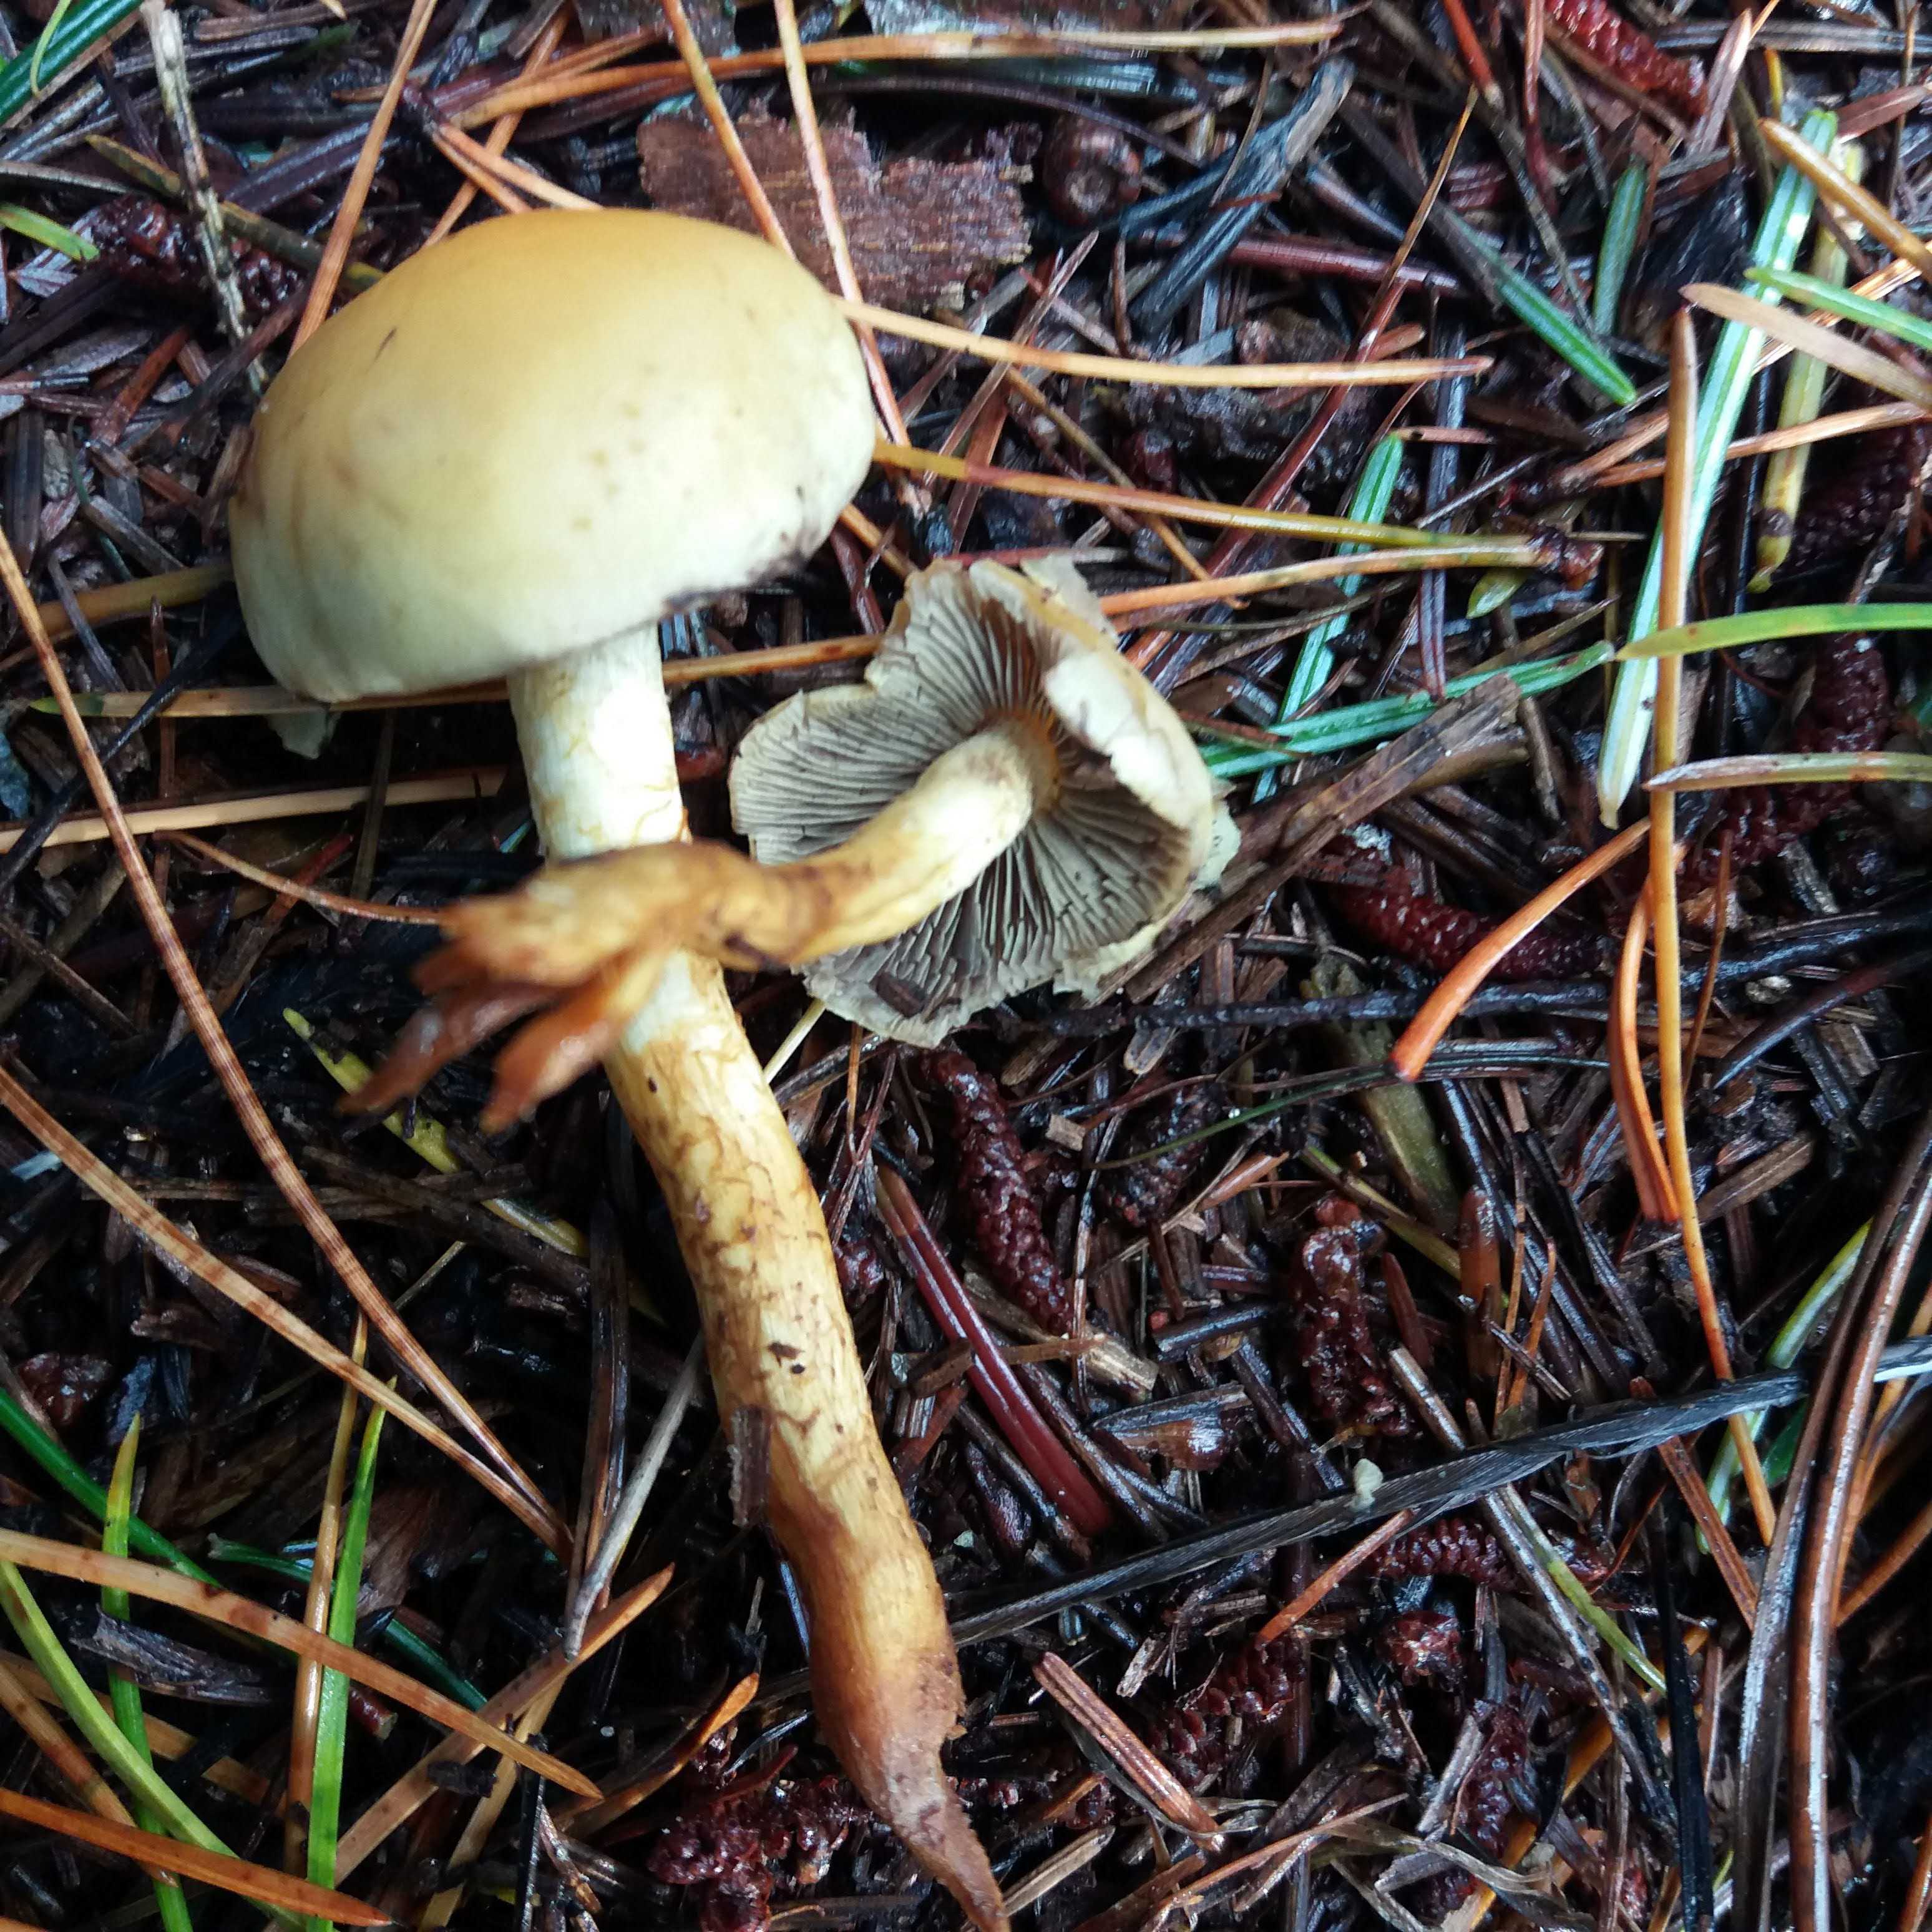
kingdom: Fungi
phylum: Basidiomycota
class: Agaricomycetes
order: Agaricales
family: Strophariaceae
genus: Hypholoma
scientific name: Hypholoma fasciculare
